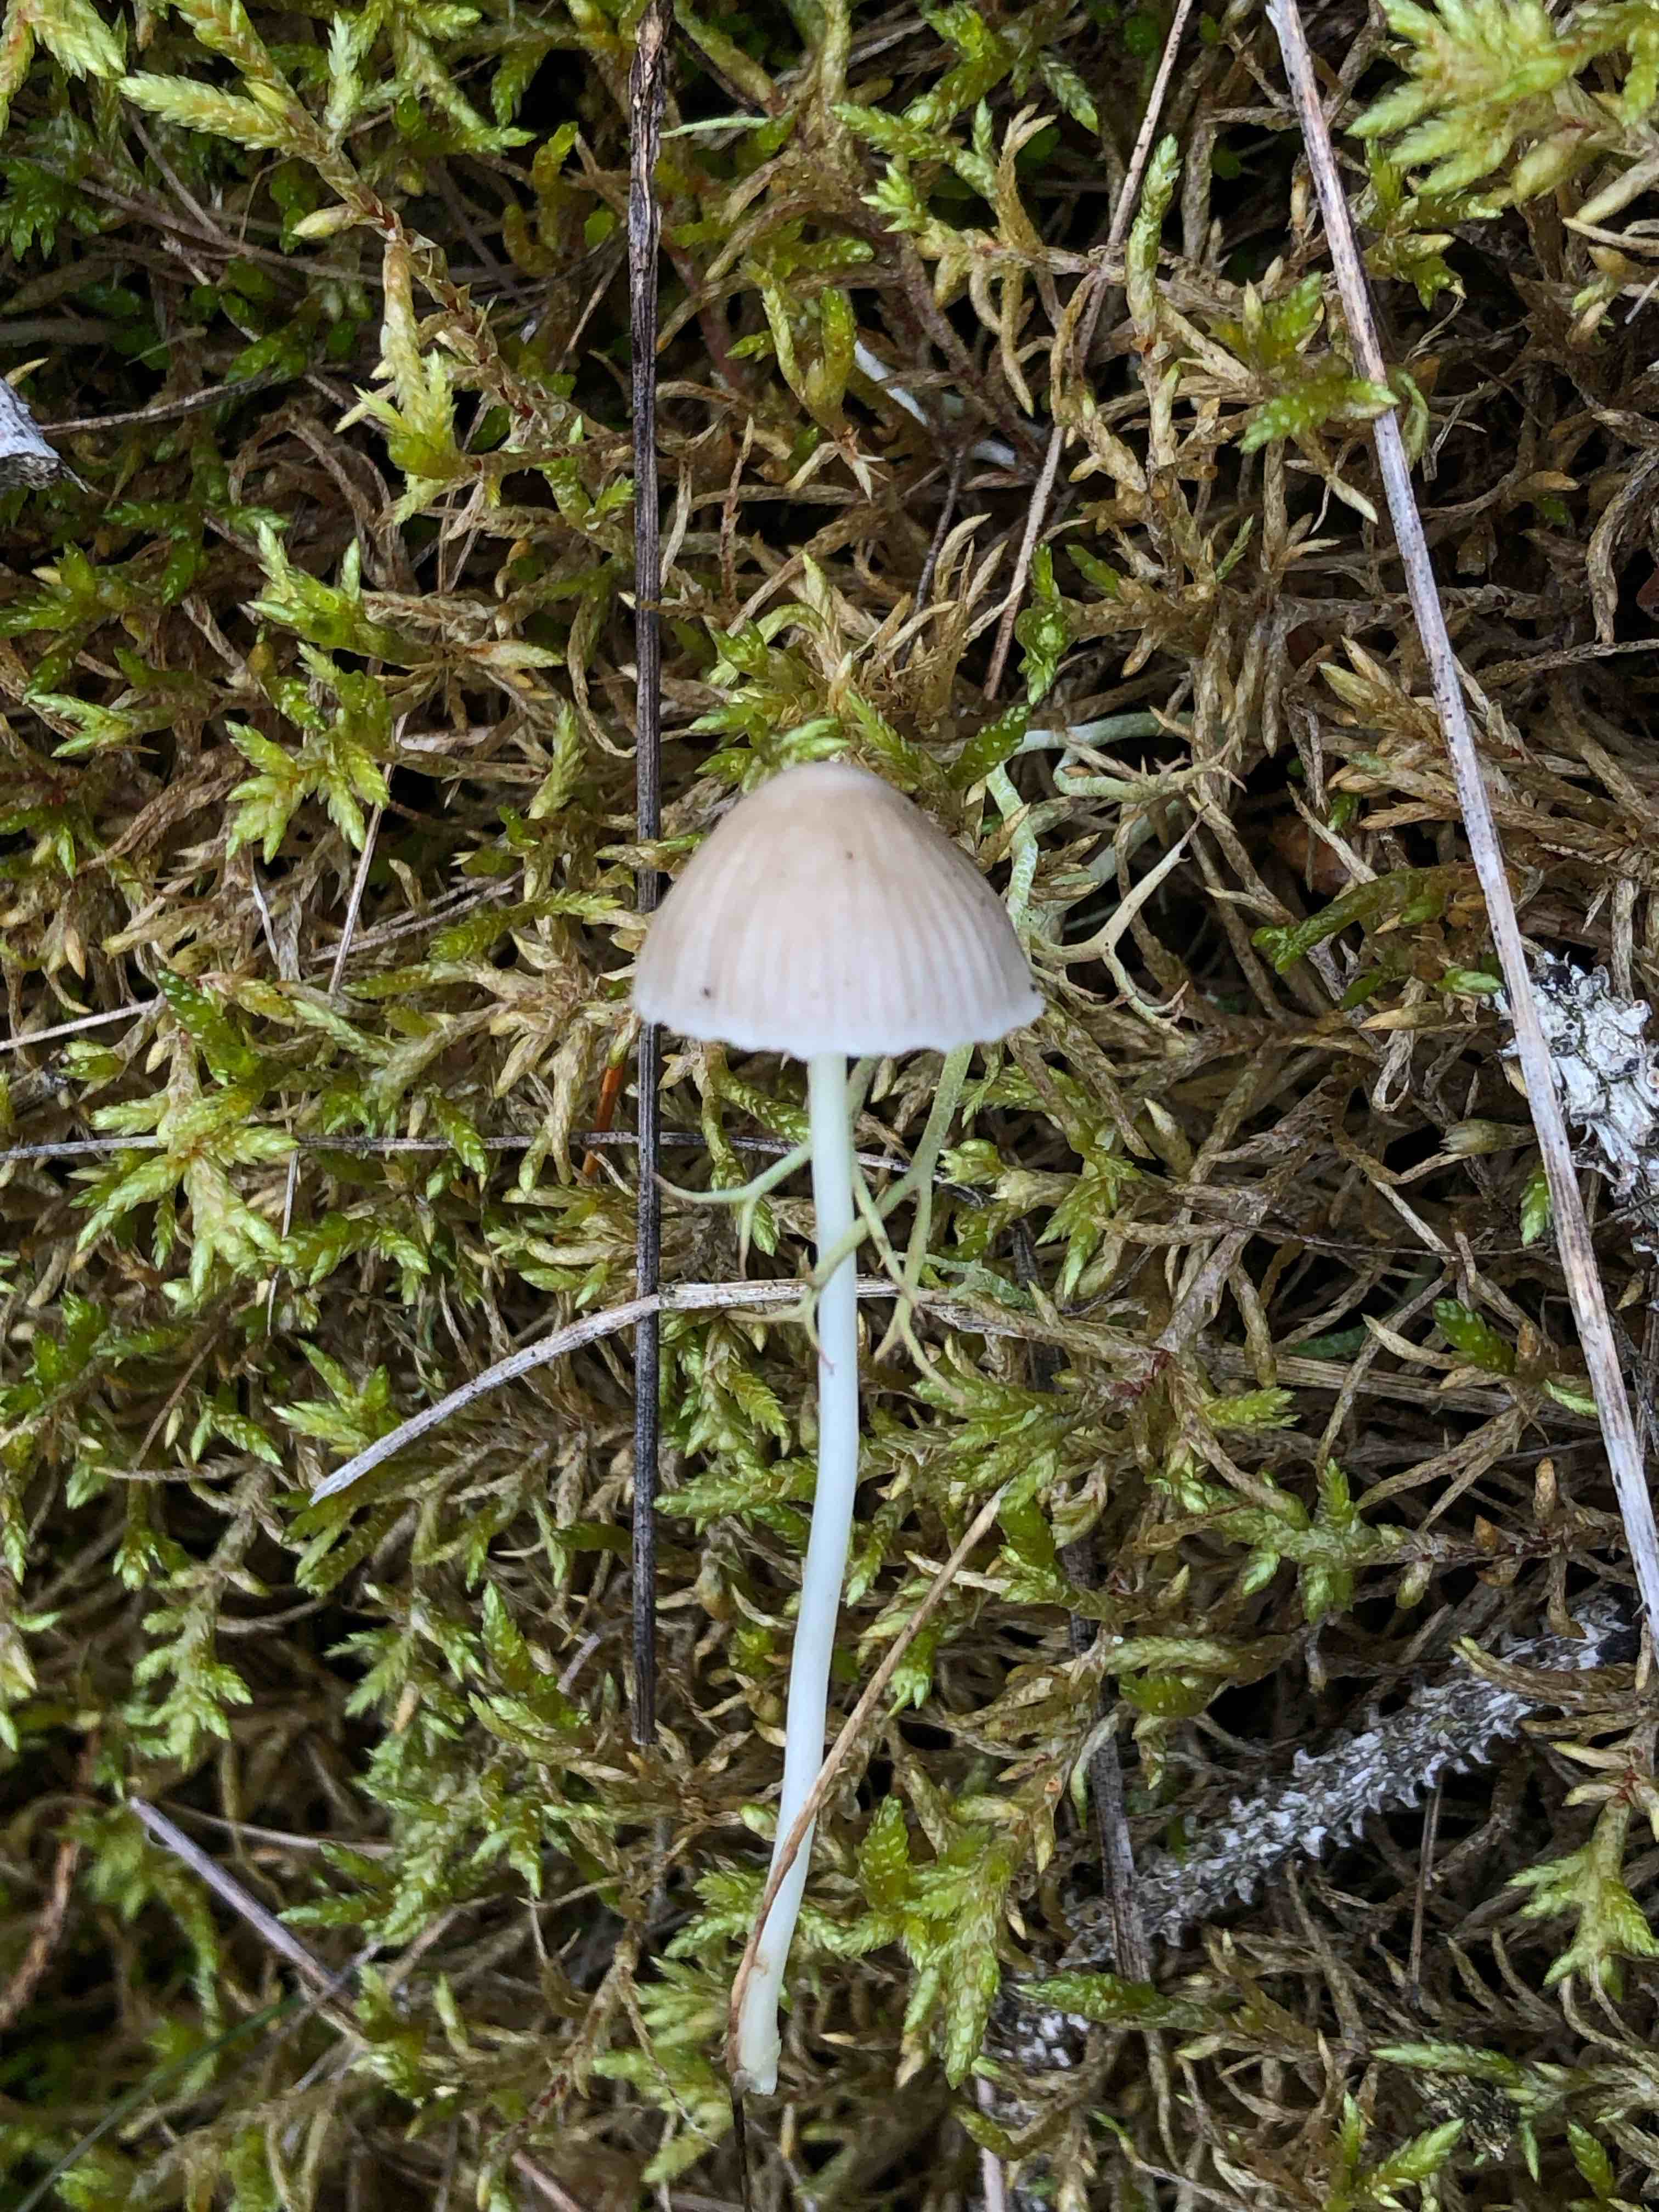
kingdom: Fungi
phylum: Basidiomycota
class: Agaricomycetes
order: Agaricales
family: Mycenaceae
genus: Mycena
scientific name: Mycena epipterygia
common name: gulstokket huesvamp
